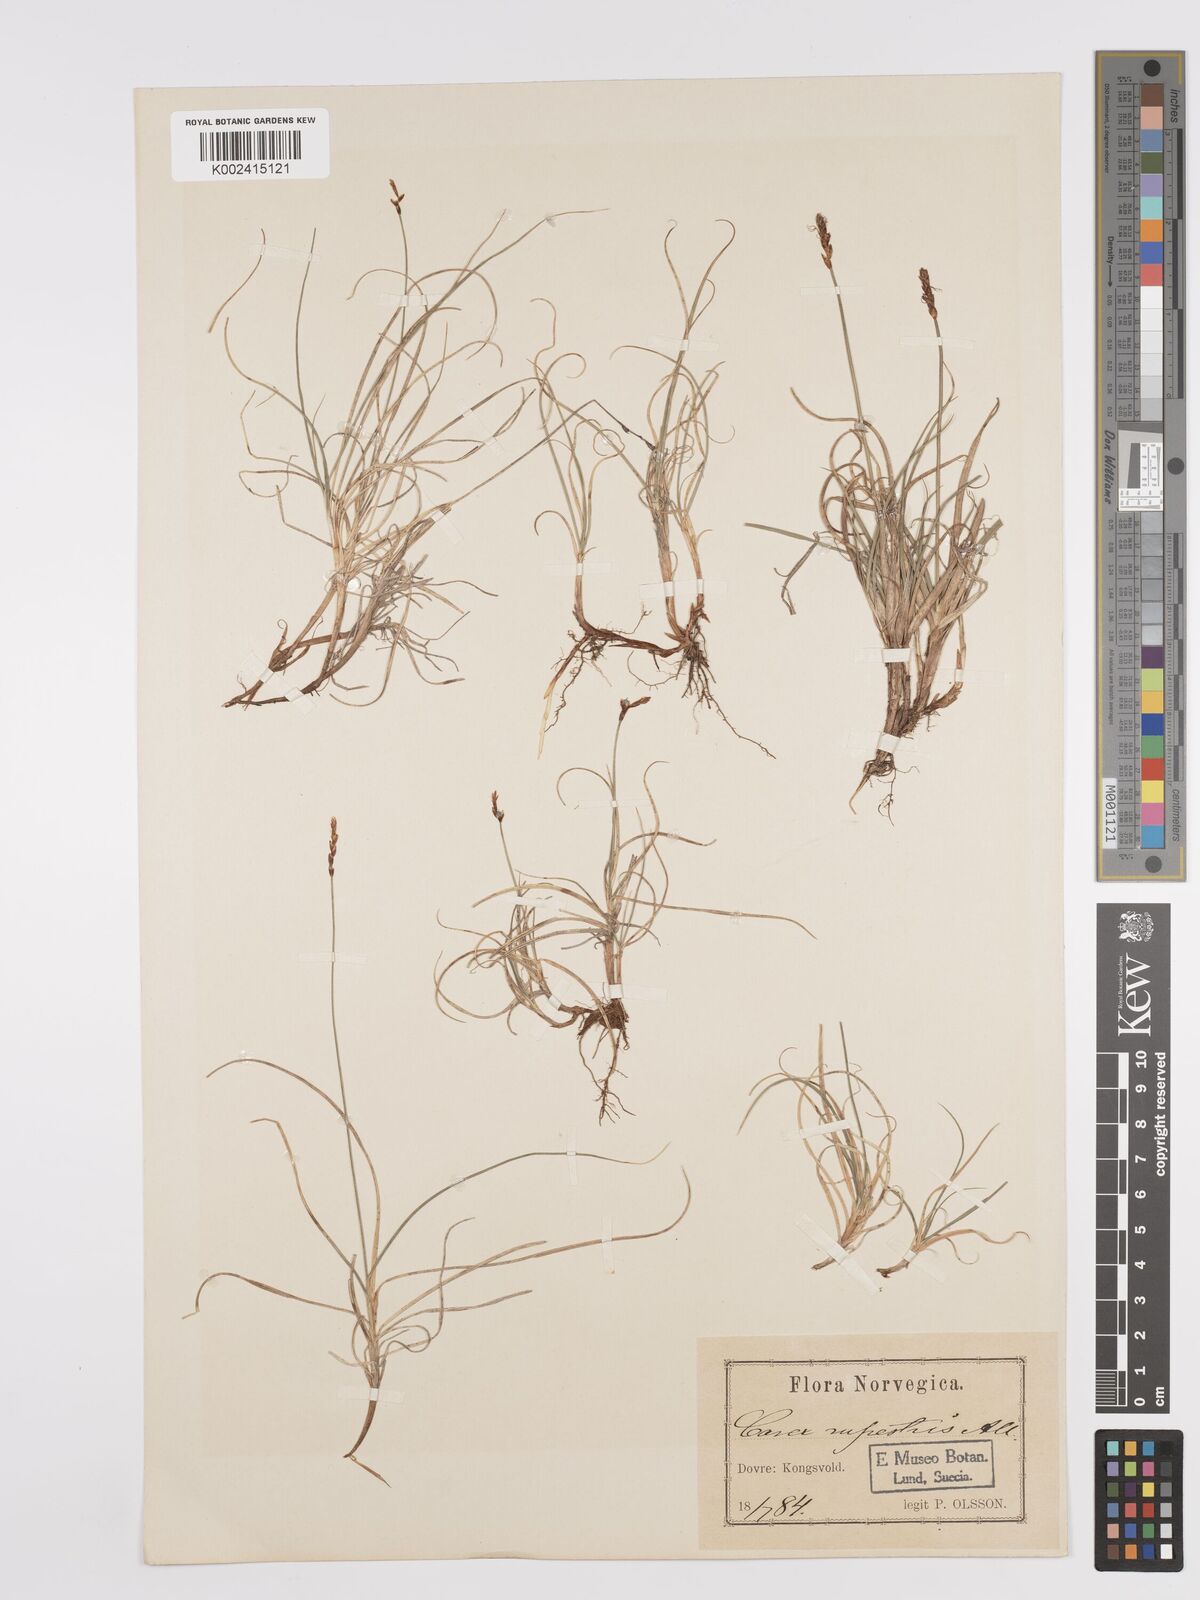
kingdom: Plantae
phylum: Tracheophyta
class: Liliopsida
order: Poales
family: Cyperaceae
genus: Carex
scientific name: Carex rupestris
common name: Rock sedge
